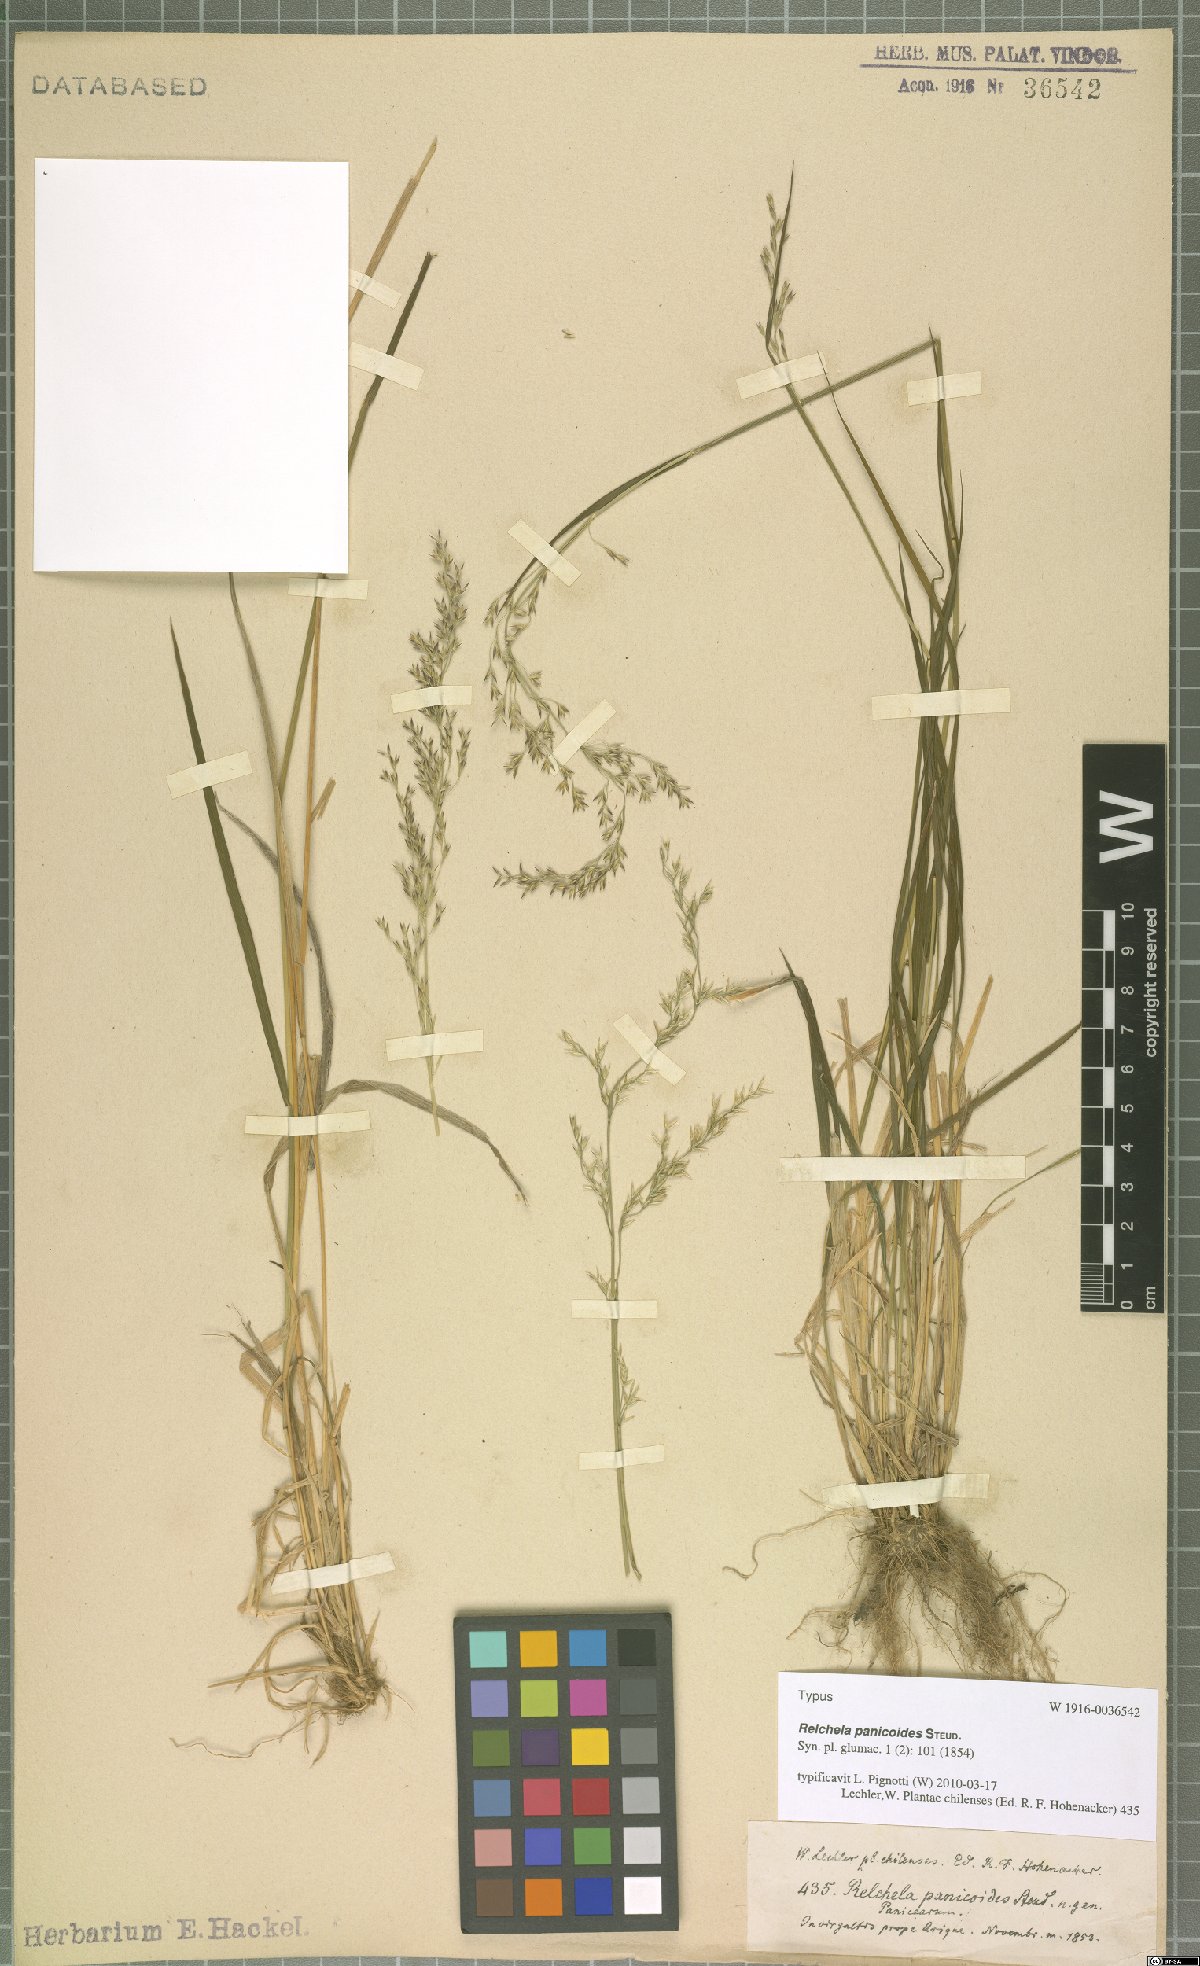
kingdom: Plantae
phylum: Tracheophyta
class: Liliopsida
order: Poales
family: Poaceae
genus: Relchela
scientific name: Relchela panicoides
